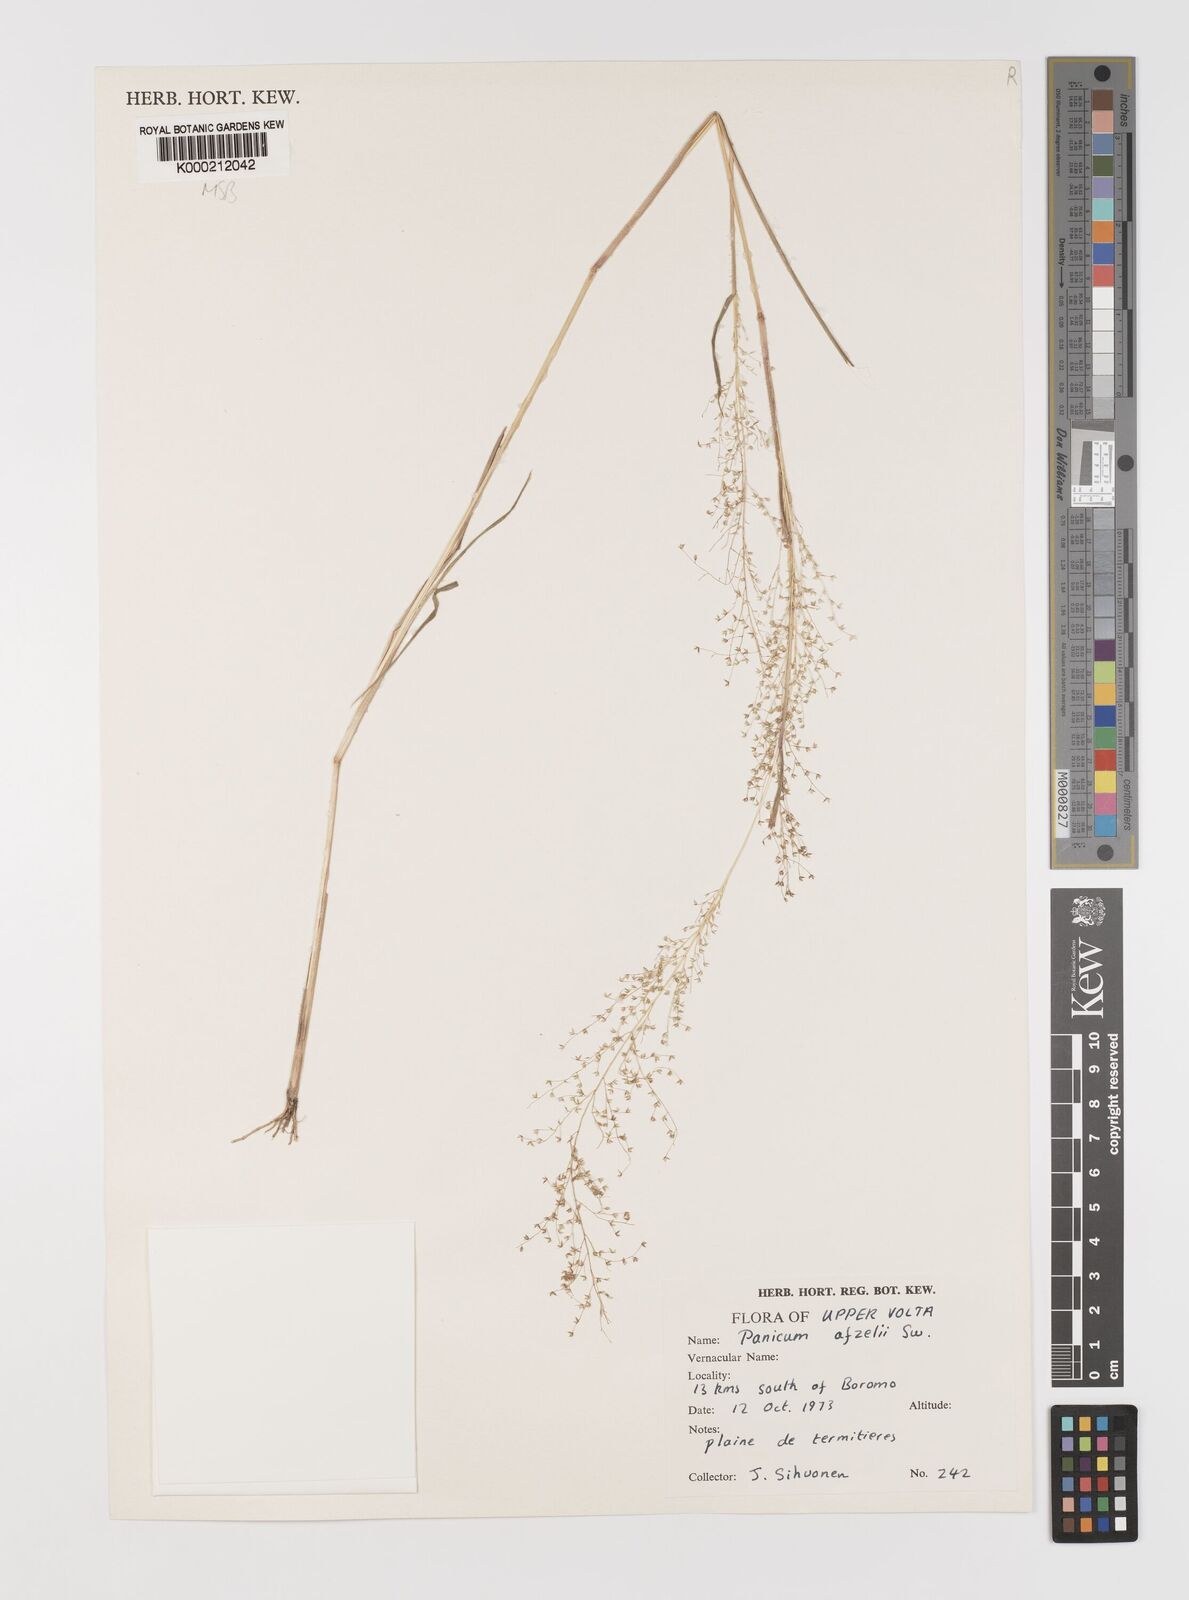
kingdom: Plantae
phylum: Tracheophyta
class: Liliopsida
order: Poales
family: Poaceae
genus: Panicum
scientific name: Panicum afzelii
